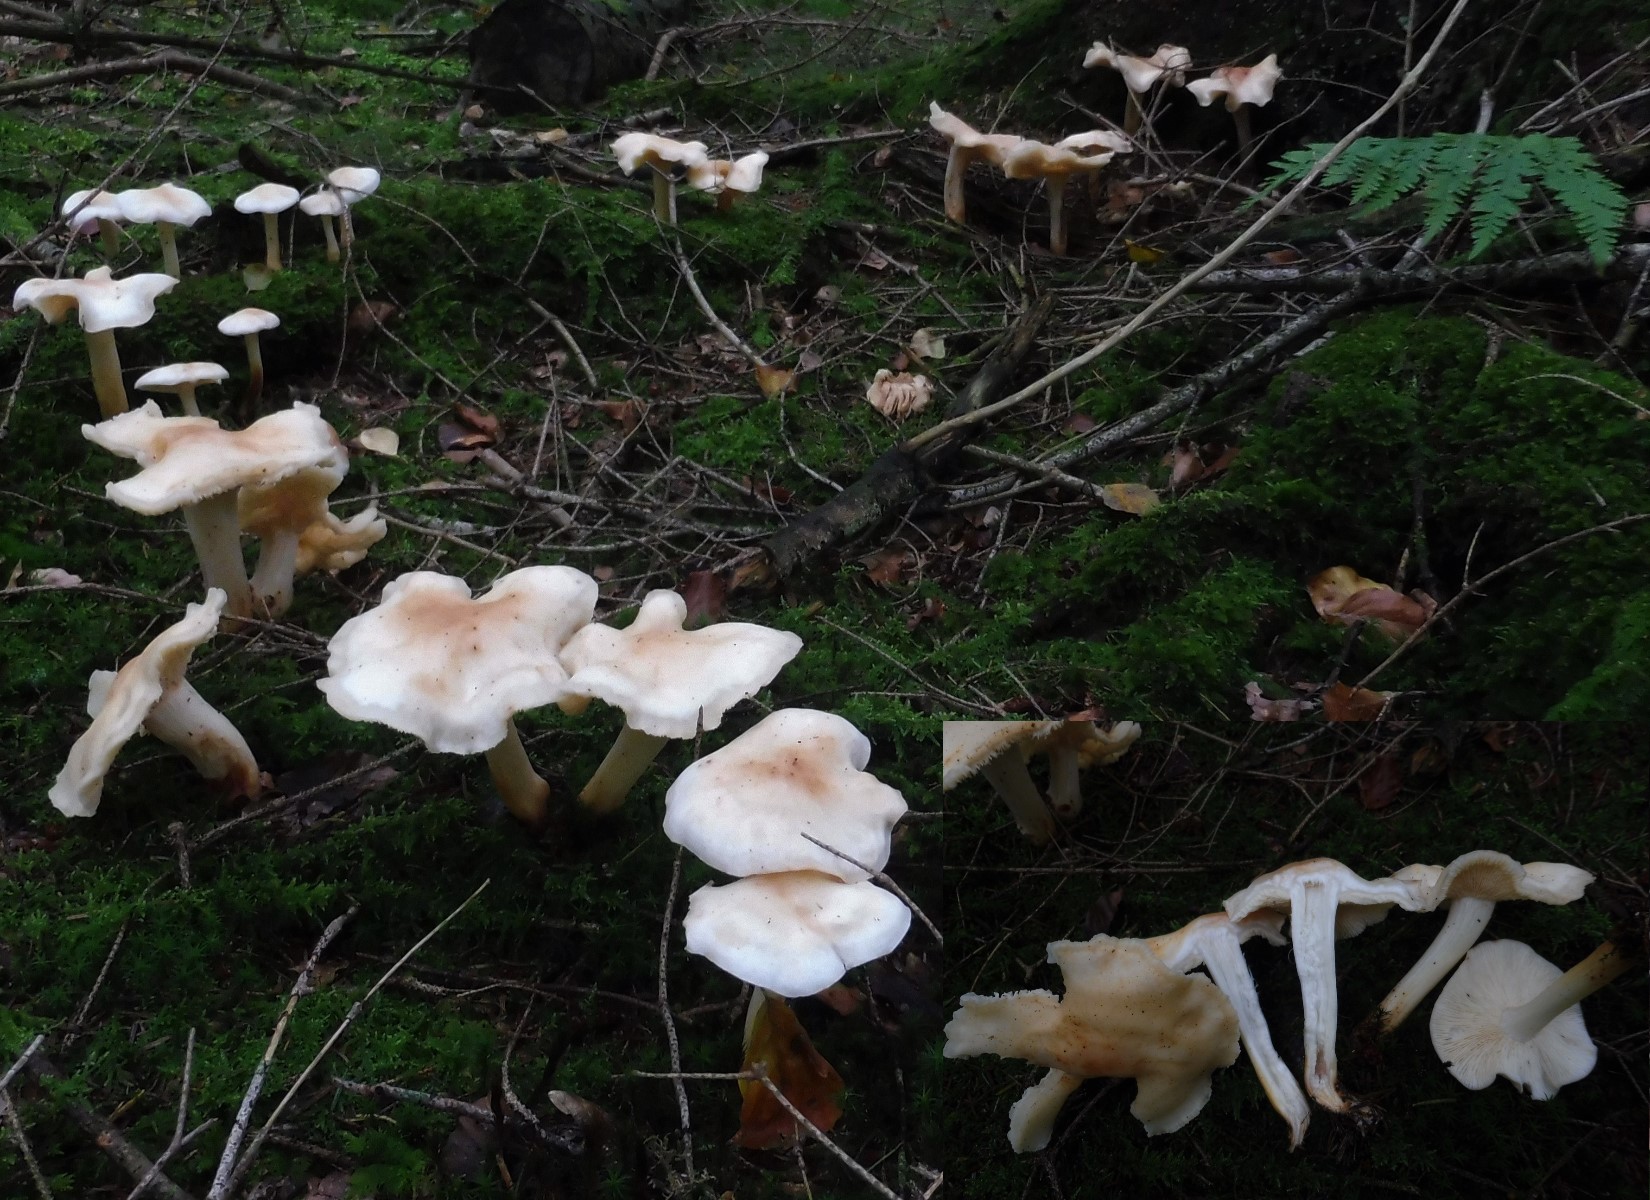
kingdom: Fungi
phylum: Basidiomycota
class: Agaricomycetes
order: Agaricales
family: Omphalotaceae
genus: Rhodocollybia
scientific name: Rhodocollybia maculata
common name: plettet fladhat
